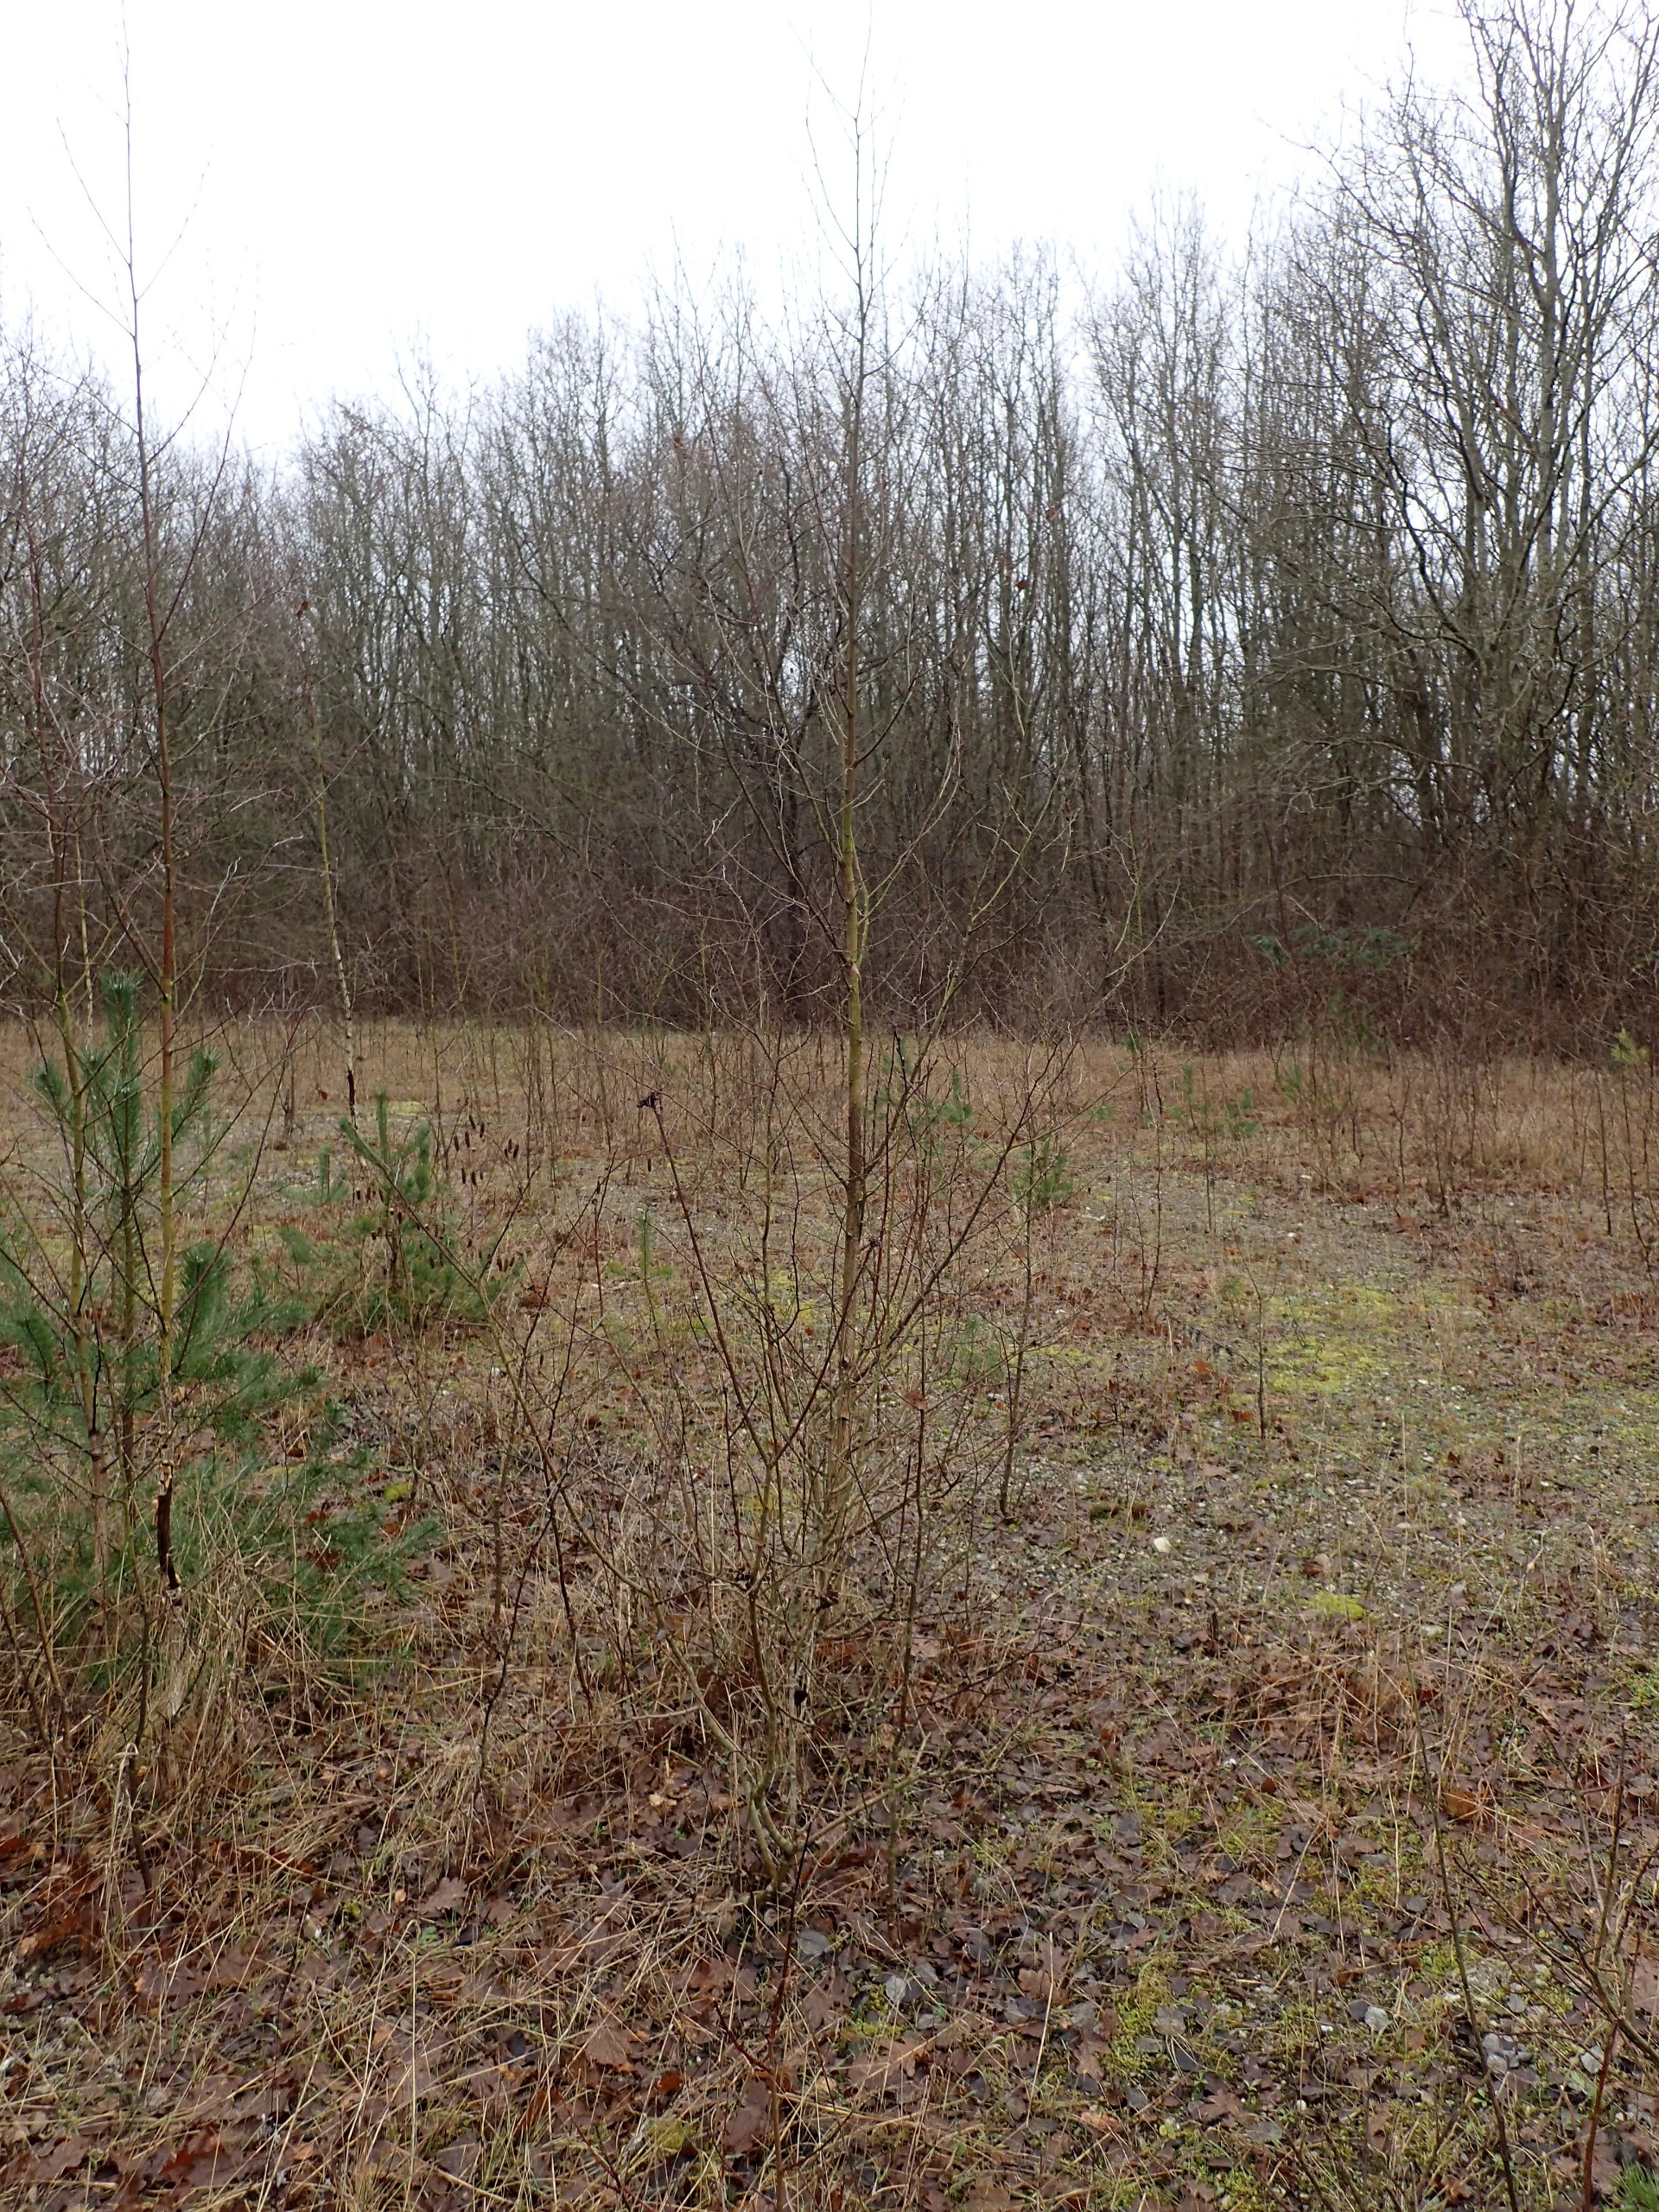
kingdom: Plantae
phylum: Tracheophyta
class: Magnoliopsida
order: Fagales
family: Betulaceae
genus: Betula
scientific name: Betula pendula
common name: Vorte-birk
